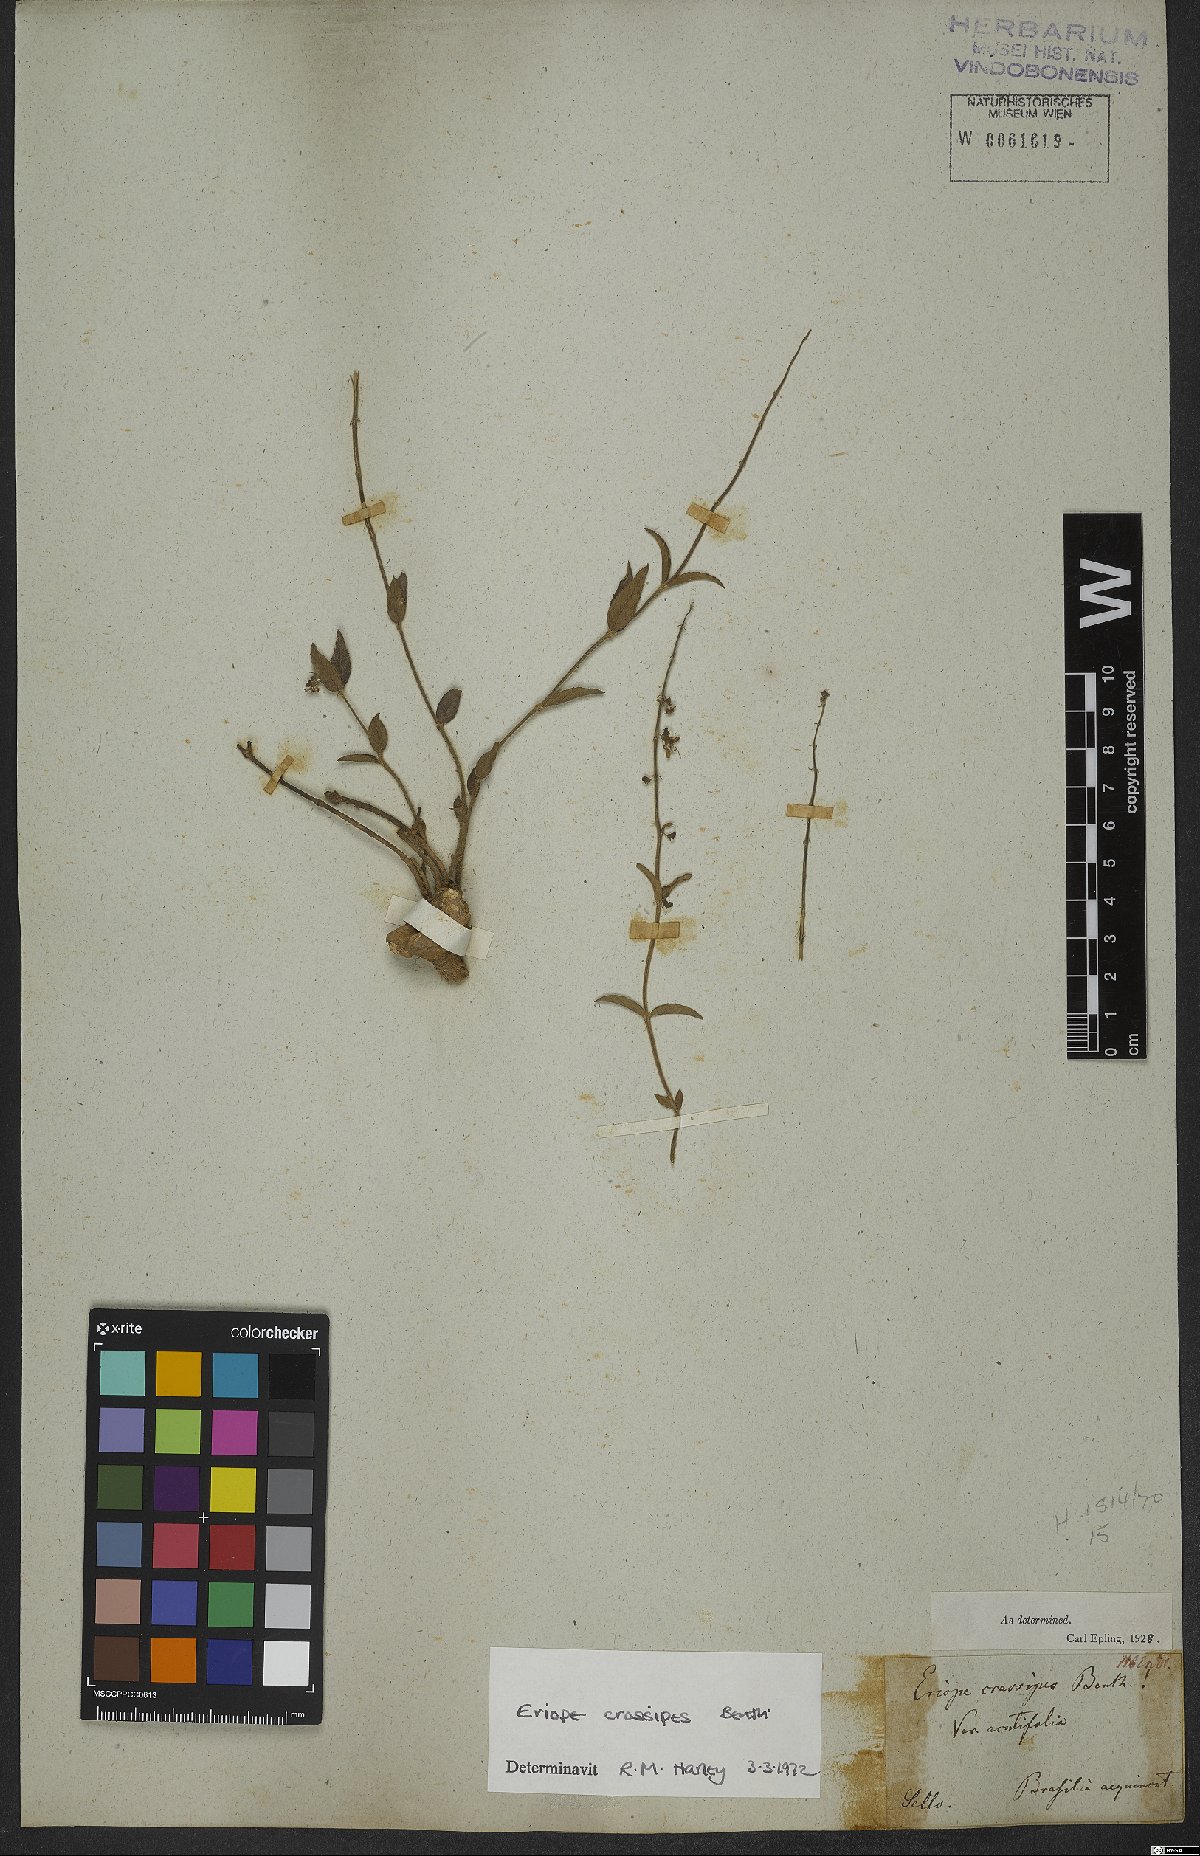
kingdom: Plantae
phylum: Tracheophyta
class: Magnoliopsida
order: Lamiales
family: Lamiaceae
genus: Eriope
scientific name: Eriope crassipes
